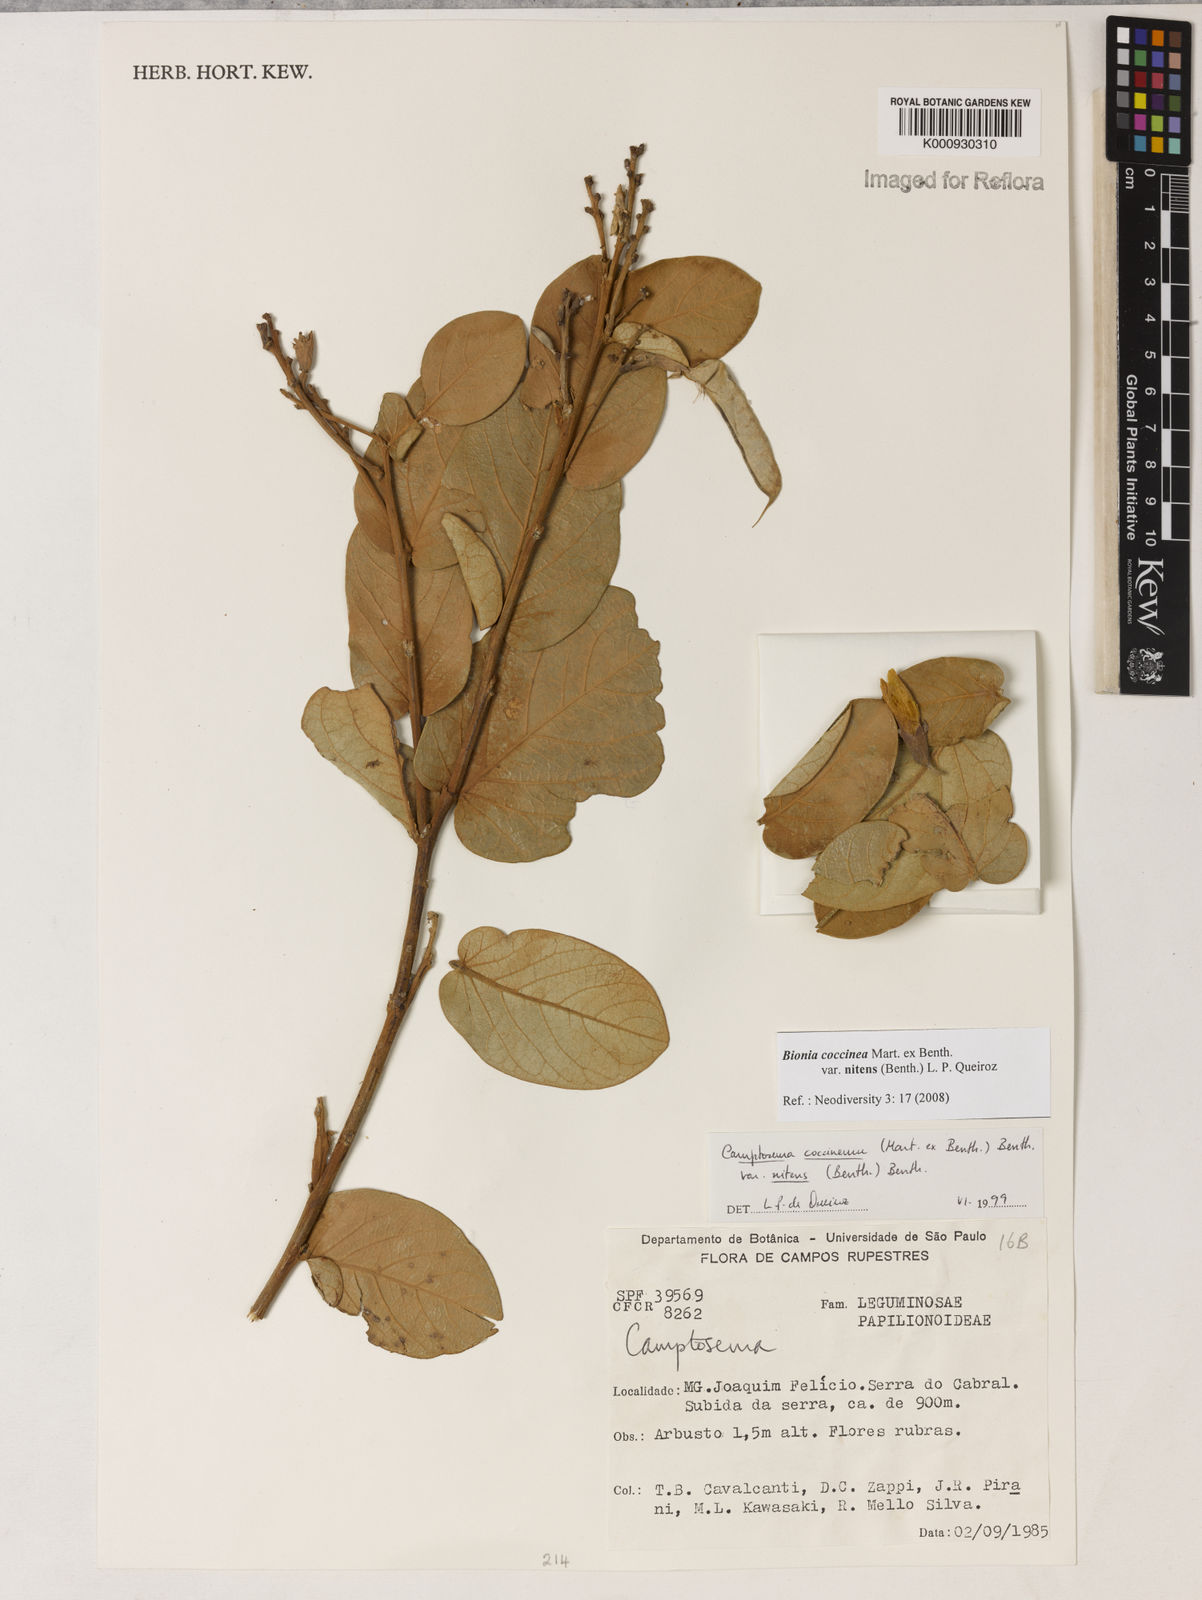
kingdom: Plantae
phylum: Tracheophyta
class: Magnoliopsida
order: Fabales
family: Fabaceae
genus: Camptosema
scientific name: Camptosema coccineum
